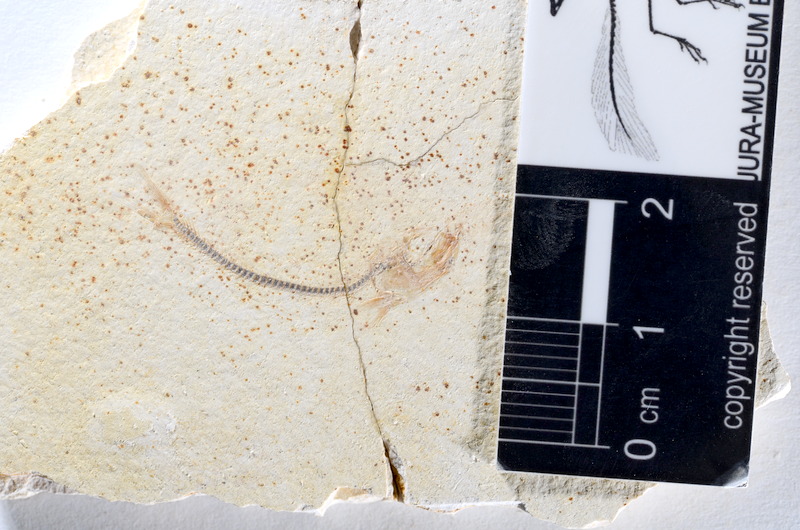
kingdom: Animalia
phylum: Chordata
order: Salmoniformes
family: Orthogonikleithridae
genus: Orthogonikleithrus
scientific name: Orthogonikleithrus hoelli
